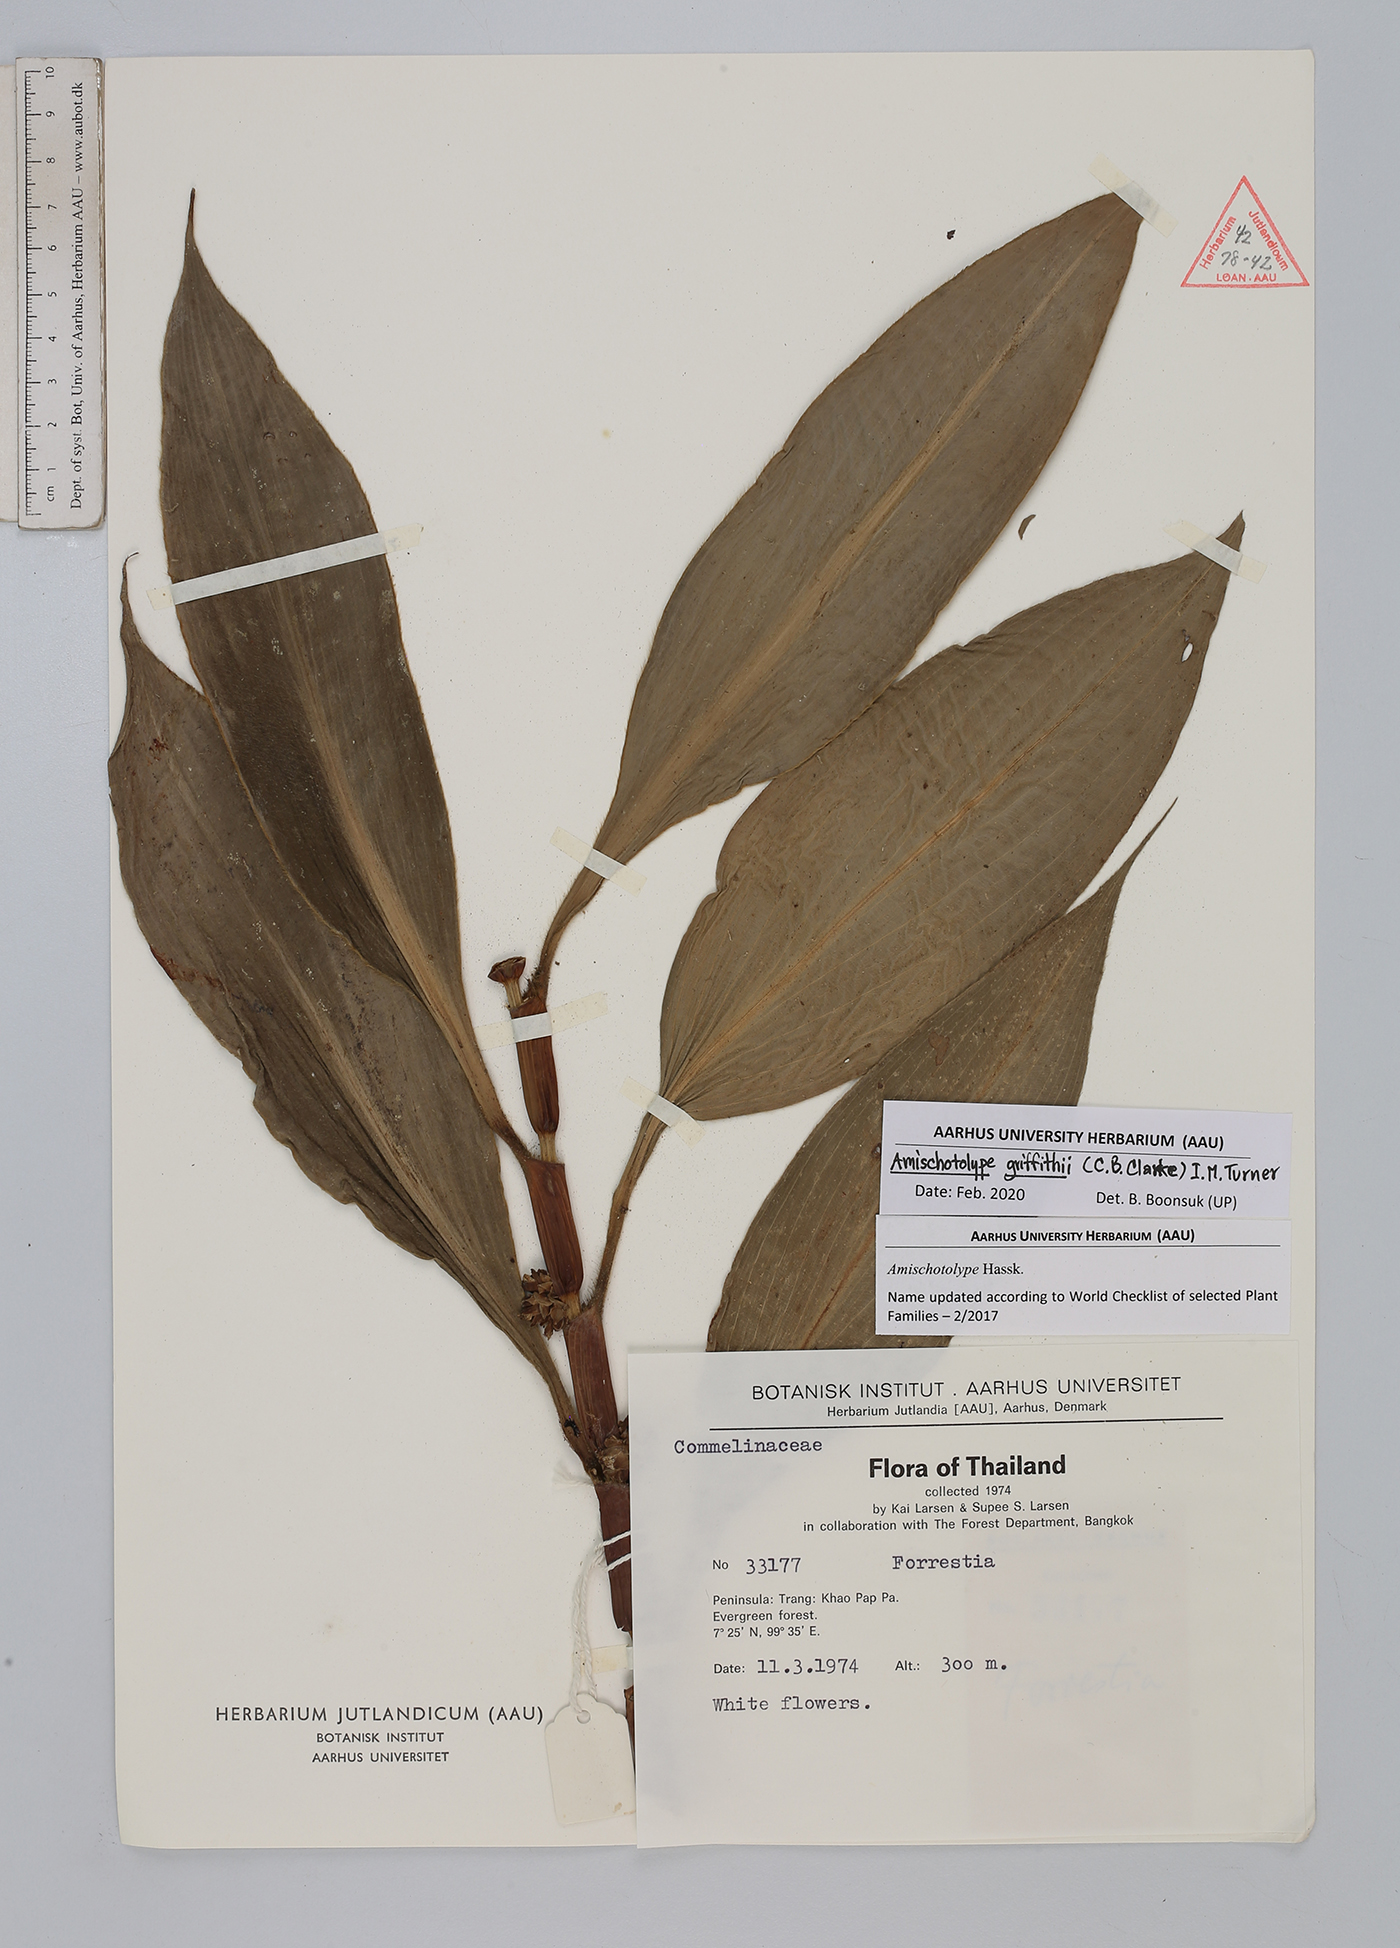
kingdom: Plantae
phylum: Tracheophyta
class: Liliopsida
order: Commelinales
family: Commelinaceae
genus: Amischotolype
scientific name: Amischotolype griffithii
